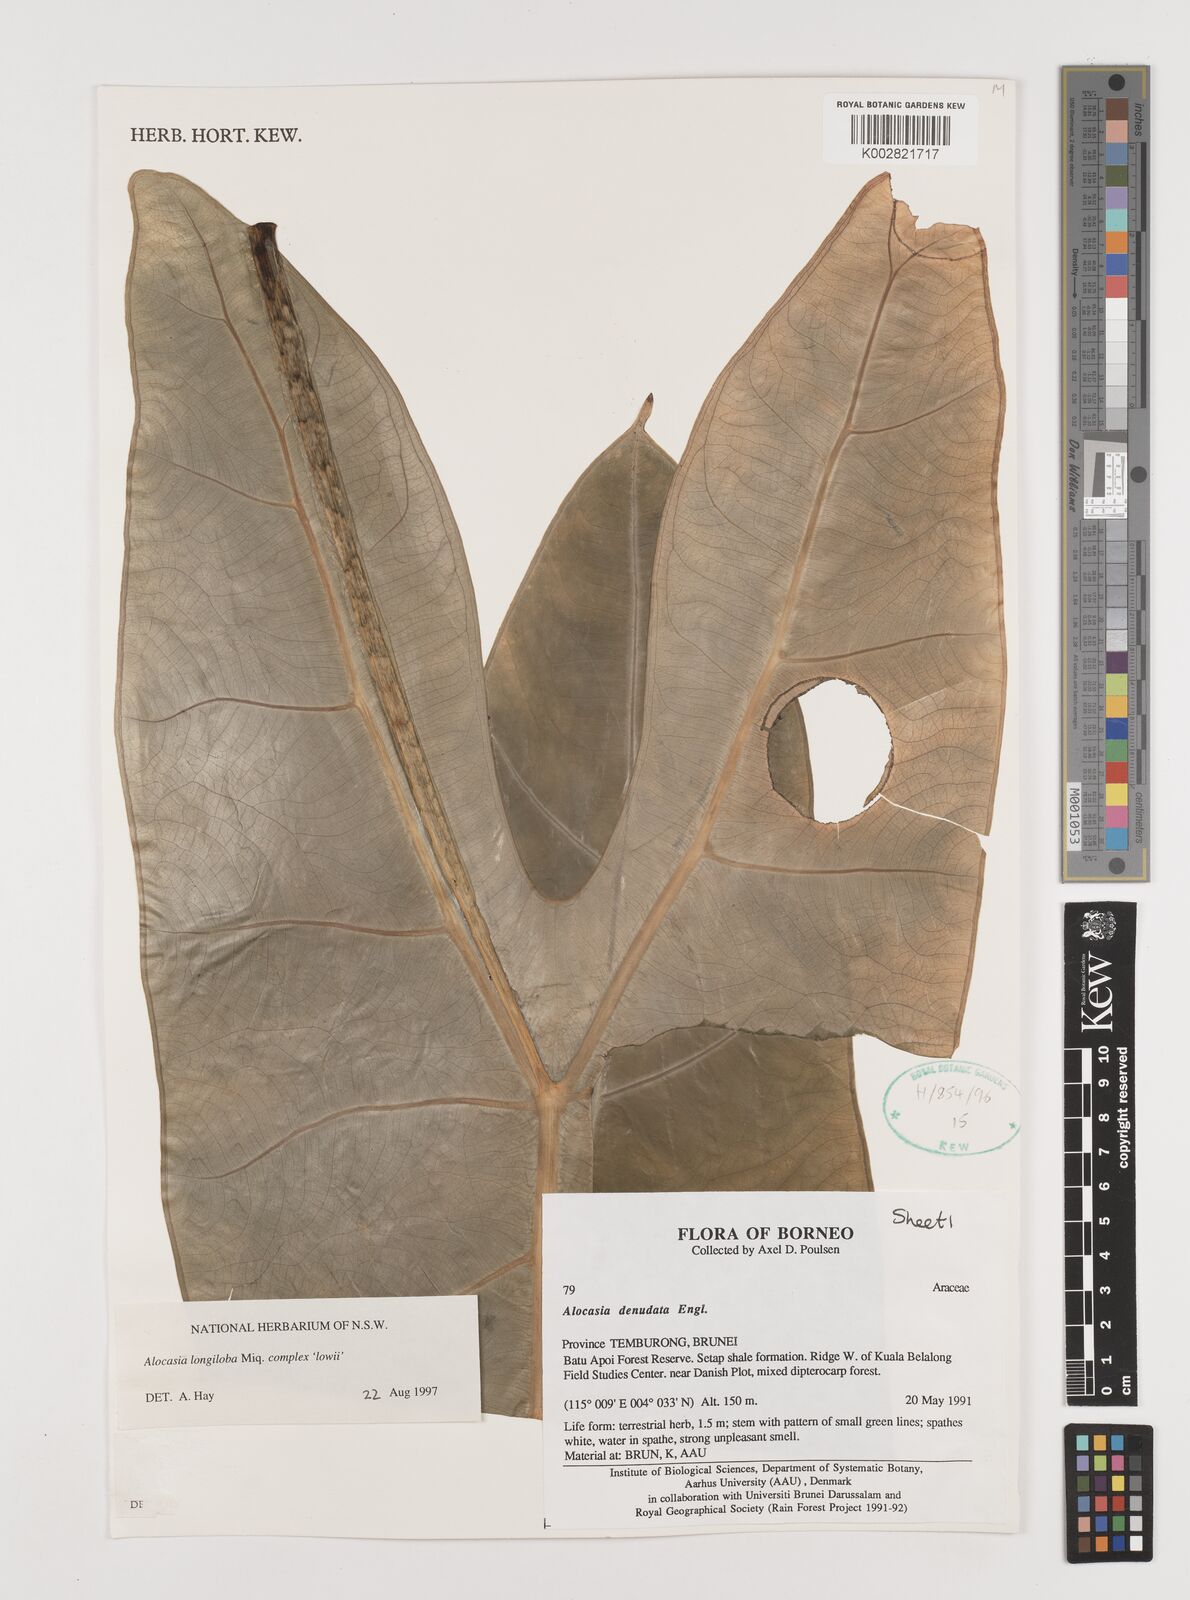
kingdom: Plantae
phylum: Tracheophyta
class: Liliopsida
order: Alismatales
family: Araceae
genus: Alocasia
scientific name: Alocasia longiloba
